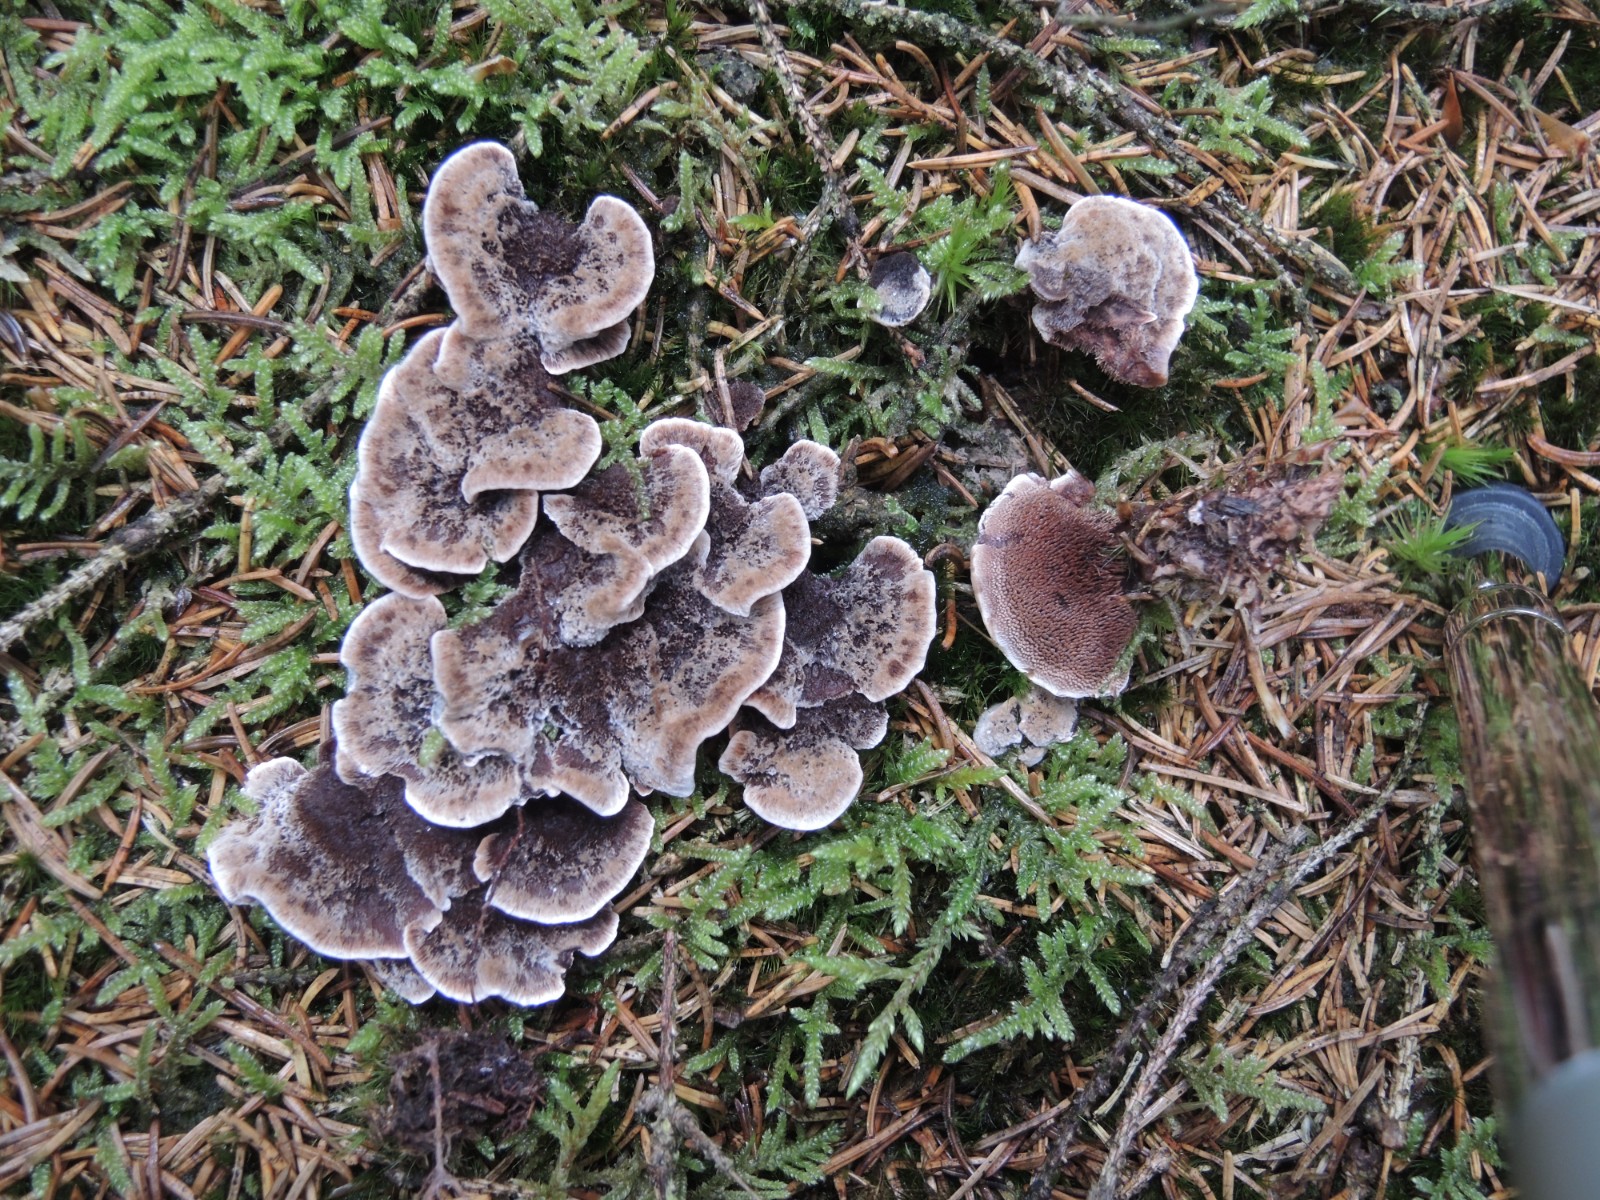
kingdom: Fungi
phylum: Basidiomycota
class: Agaricomycetes
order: Thelephorales
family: Bankeraceae
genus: Hydnellum
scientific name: Hydnellum cumulatum
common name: Rosette tooth
